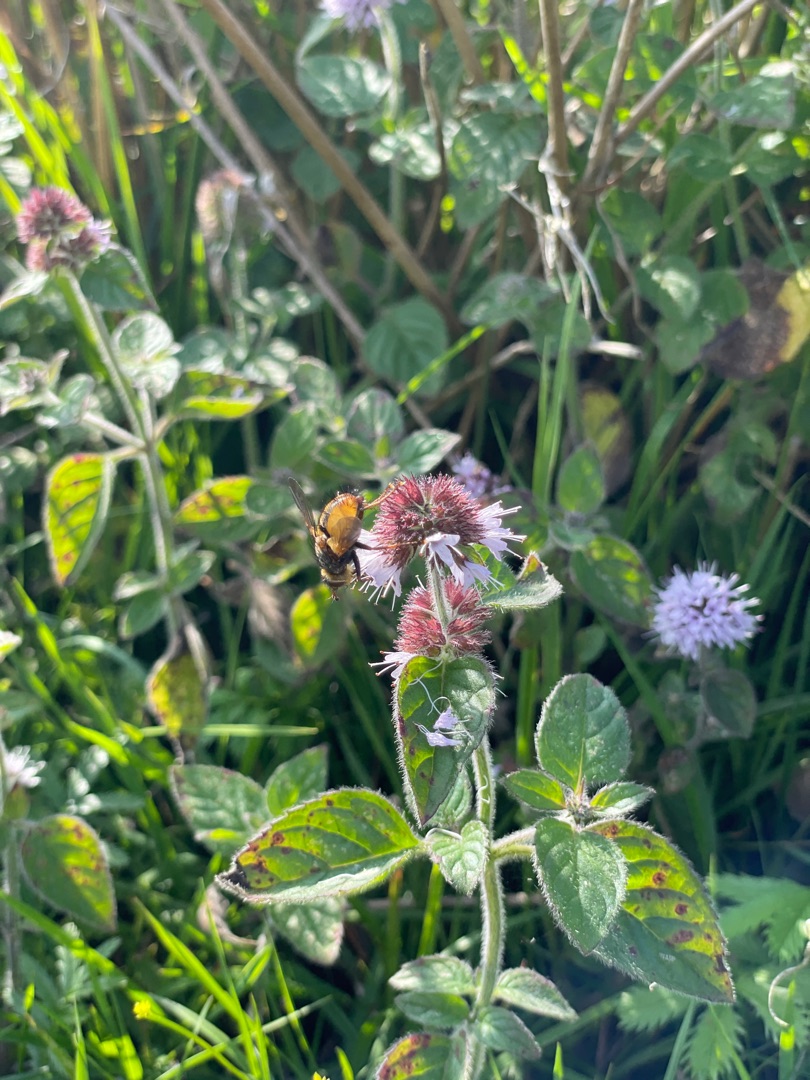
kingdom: Animalia
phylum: Arthropoda
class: Insecta
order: Diptera
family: Tachinidae
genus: Tachina
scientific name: Tachina fera
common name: Mellemfluen oskar
